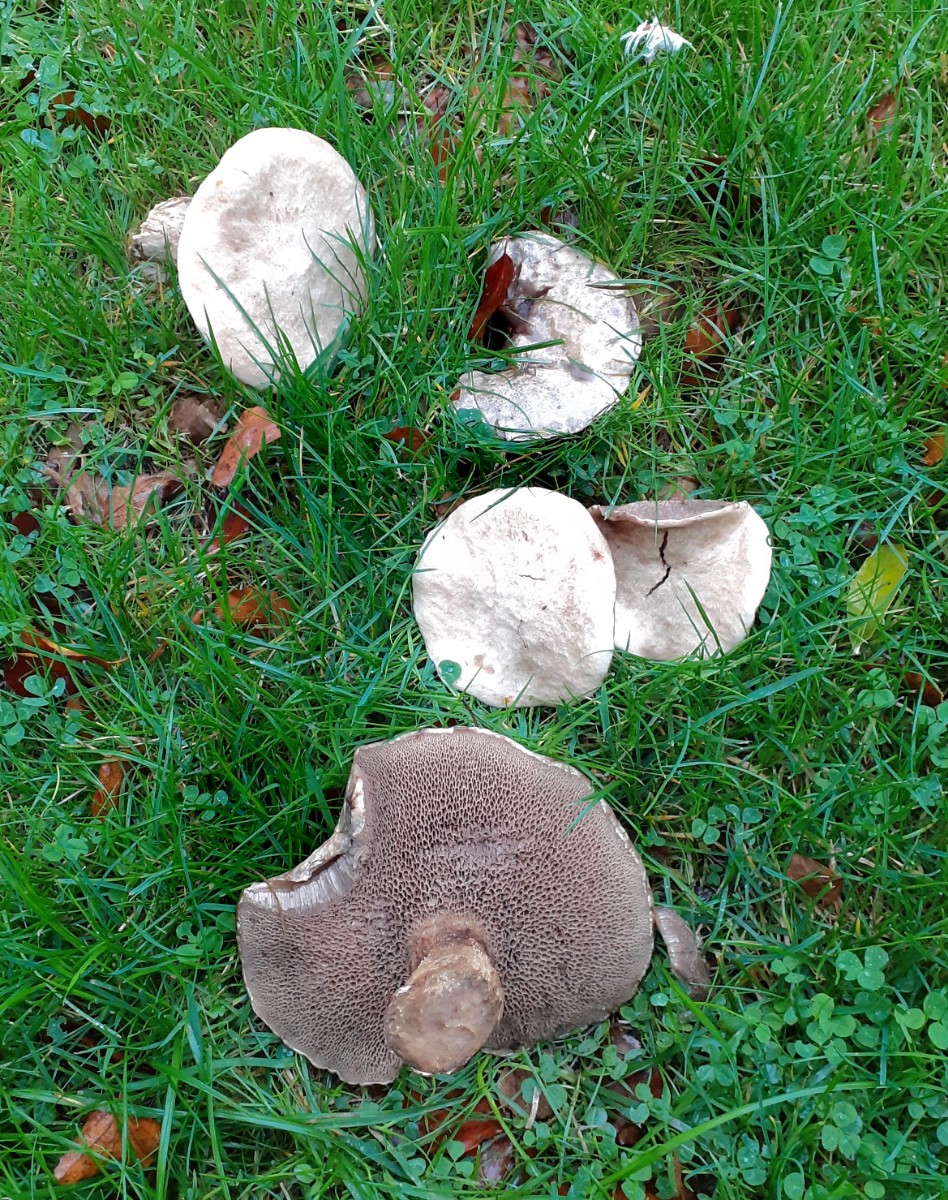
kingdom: Fungi
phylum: Basidiomycota
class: Agaricomycetes
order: Boletales
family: Suillaceae
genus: Suillus
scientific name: Suillus viscidus
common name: olivengrå slimrørhat
